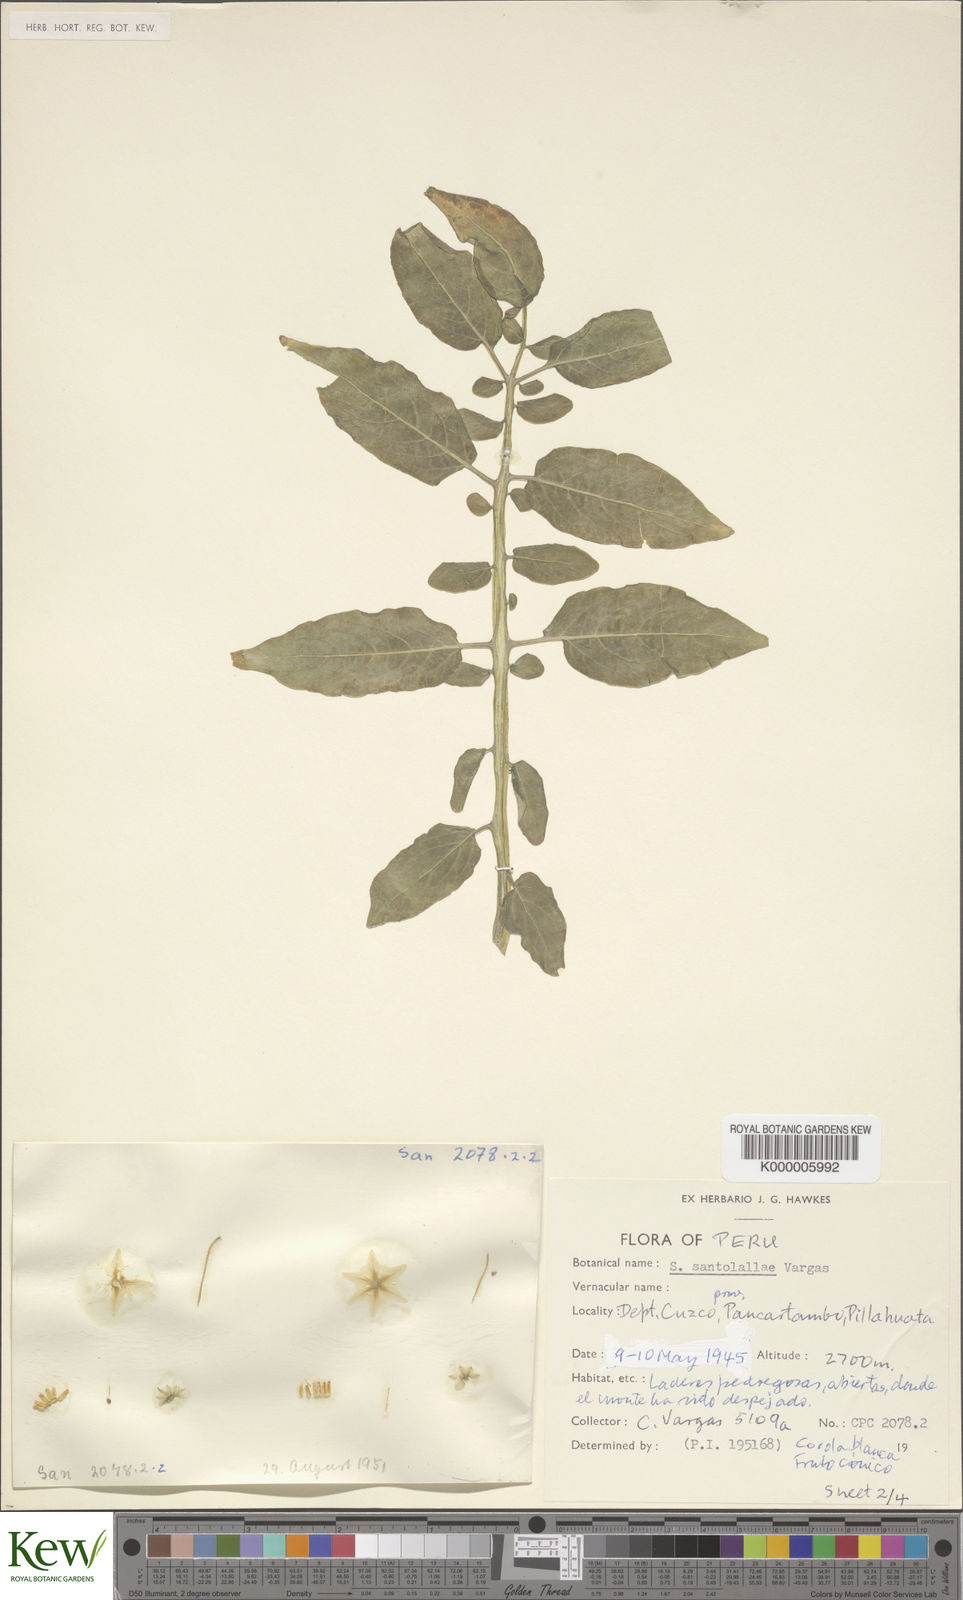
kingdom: Plantae
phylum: Tracheophyta
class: Magnoliopsida
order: Solanales
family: Solanaceae
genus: Solanum
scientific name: Solanum violaceimarmoratum
